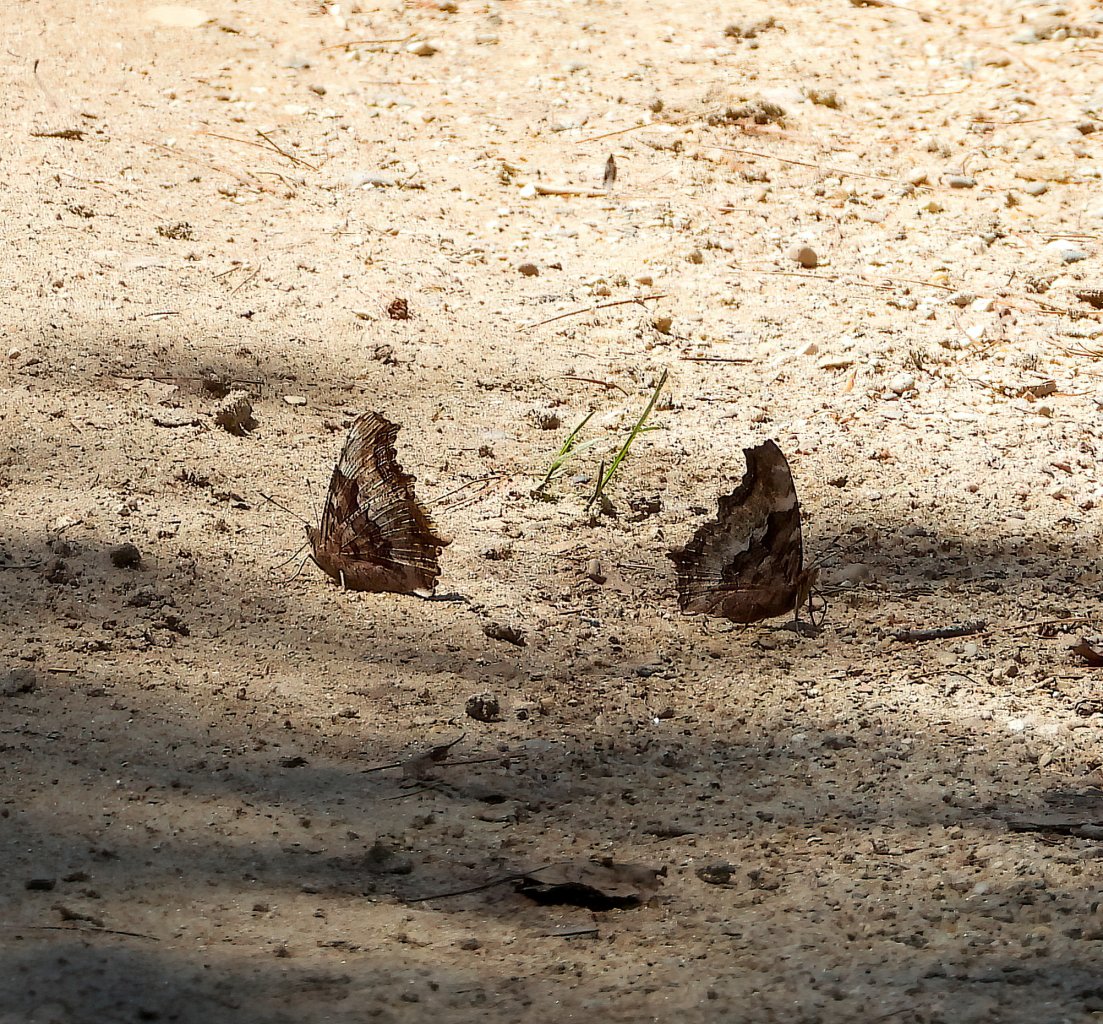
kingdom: Animalia
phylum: Arthropoda
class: Insecta
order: Lepidoptera
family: Nymphalidae
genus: Polygonia
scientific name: Polygonia vaualbum
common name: Compton Tortoiseshell
